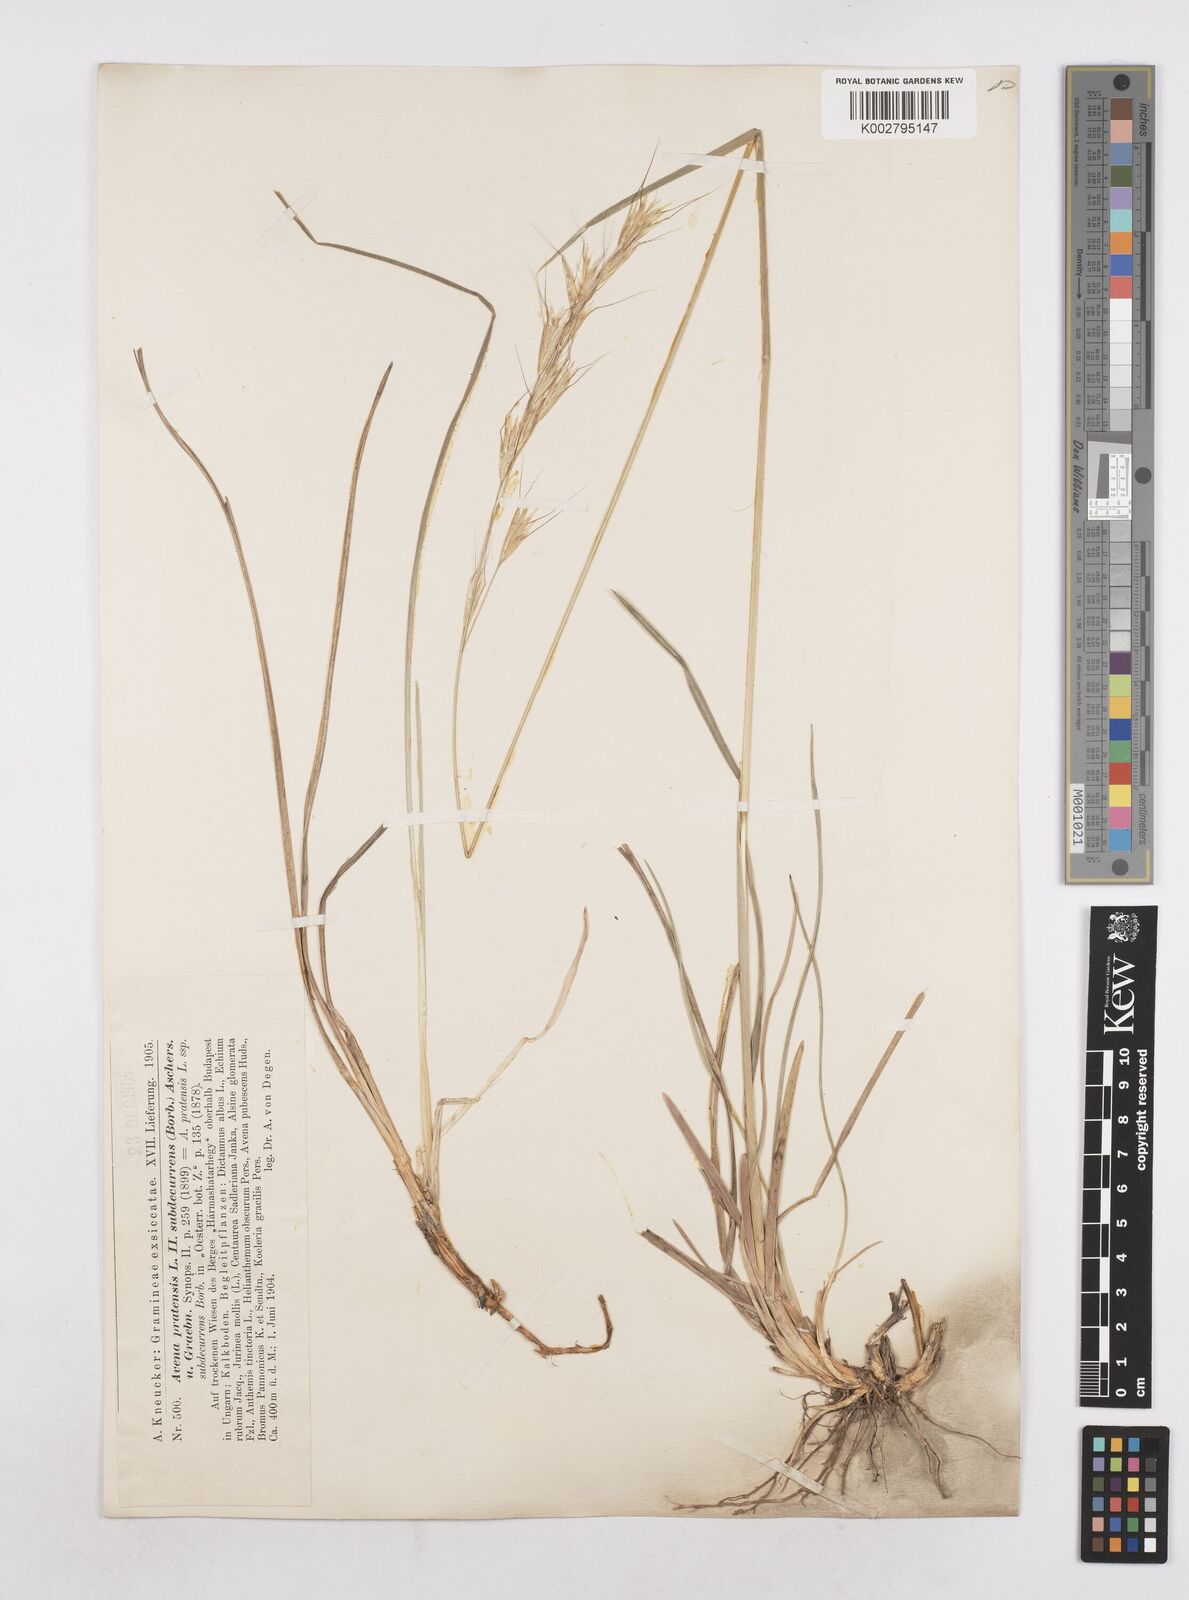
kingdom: Plantae
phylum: Tracheophyta
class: Liliopsida
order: Poales
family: Poaceae
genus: Helictochloa
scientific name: Helictochloa pratensis
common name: Meadow oat grass
